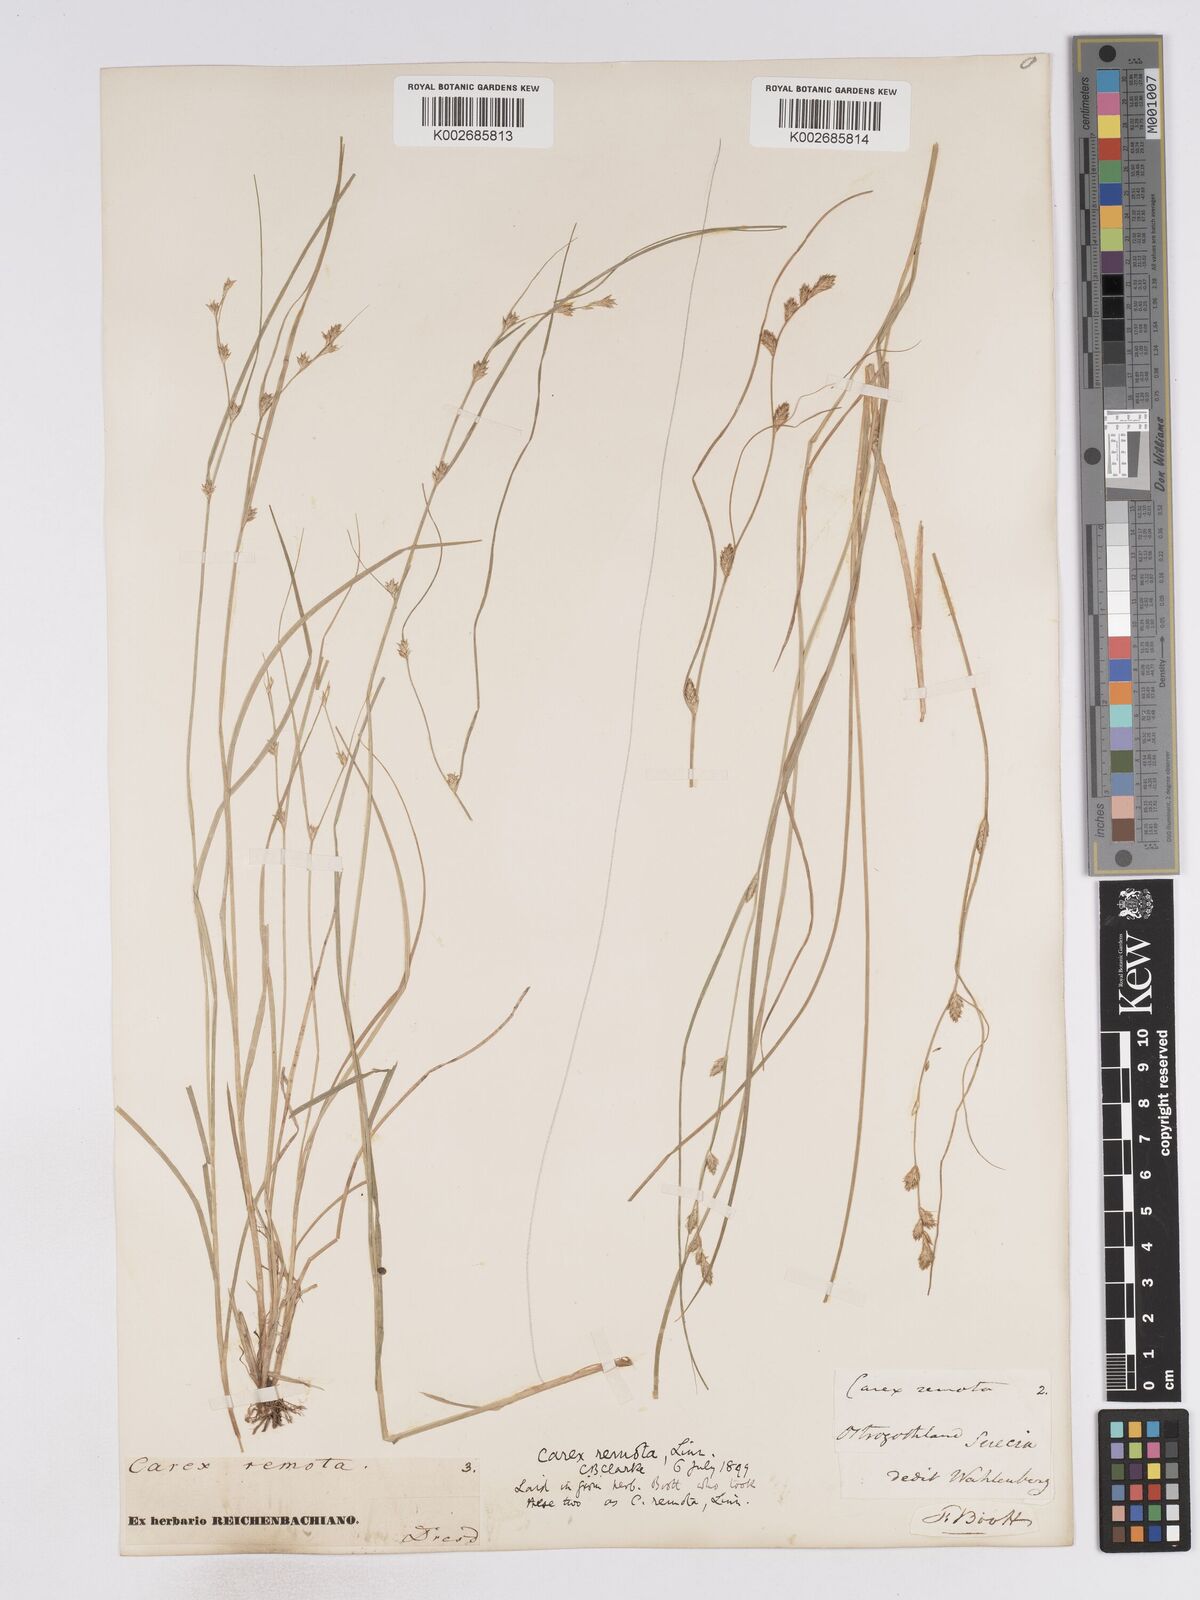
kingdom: Plantae
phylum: Tracheophyta
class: Liliopsida
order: Poales
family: Cyperaceae
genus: Carex
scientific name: Carex remota
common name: Remote sedge
